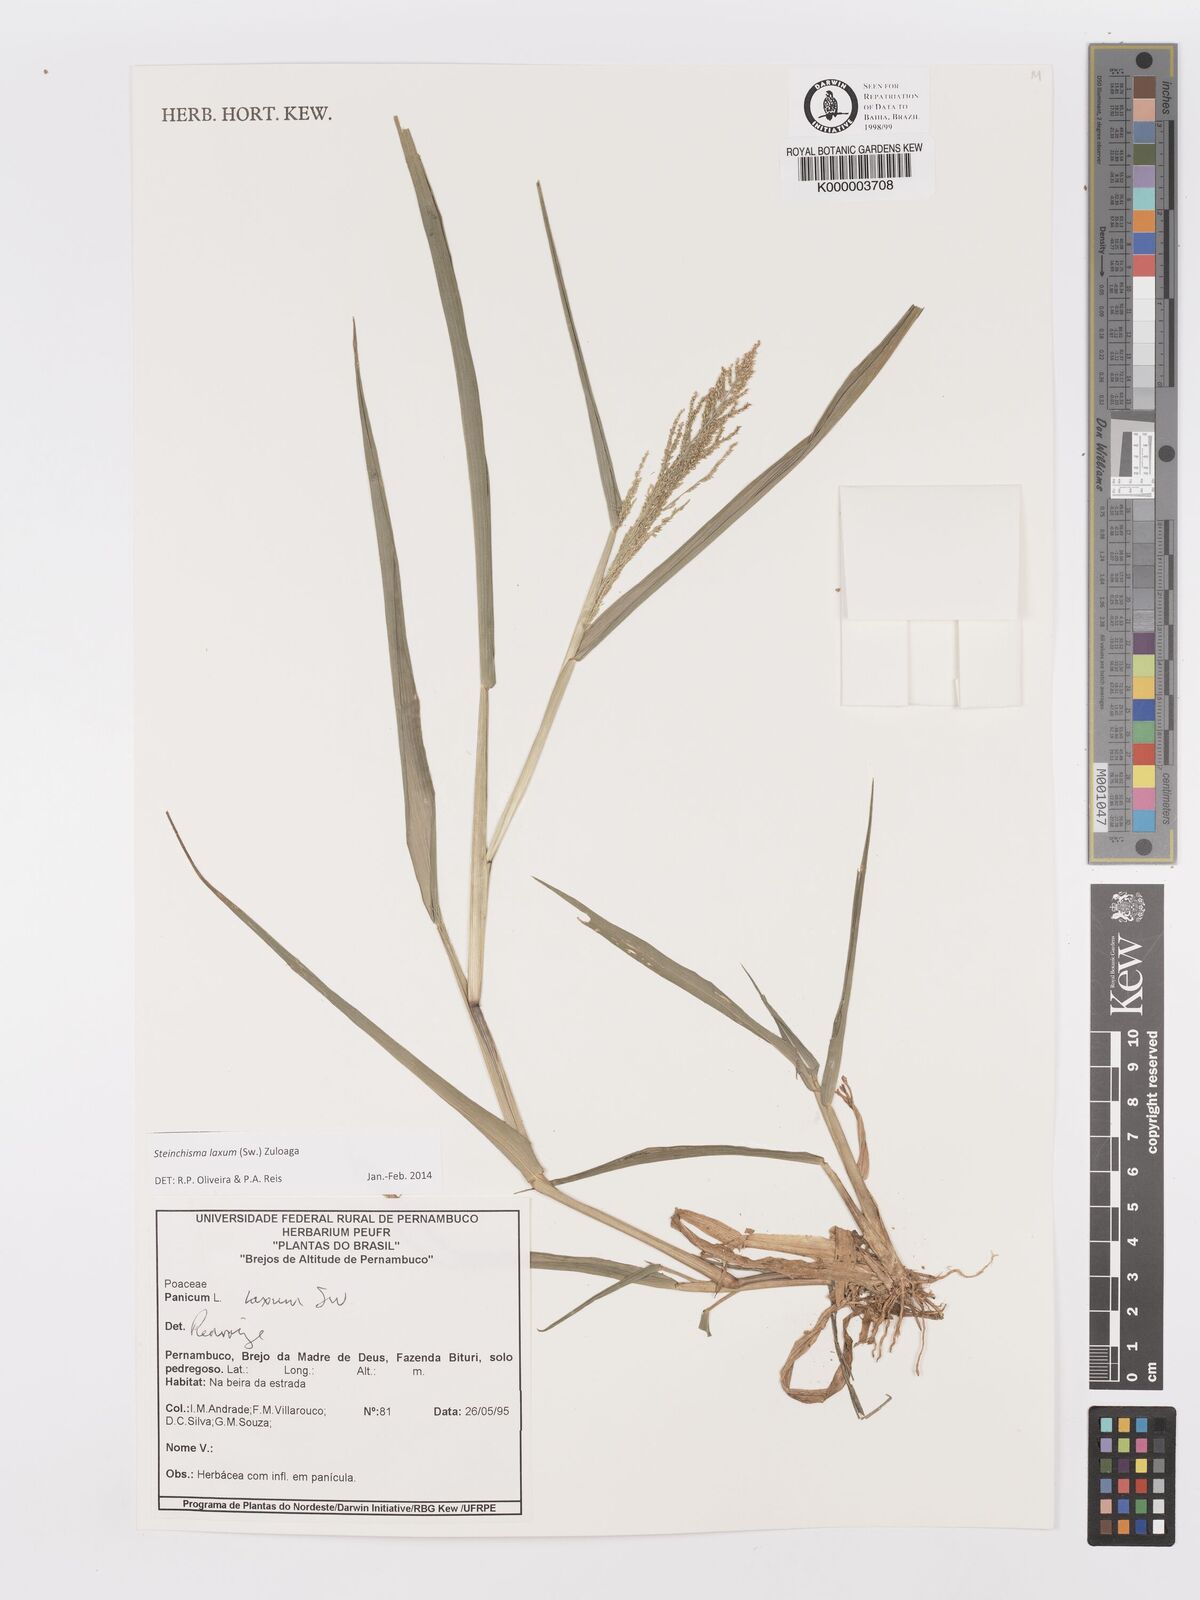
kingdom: Plantae
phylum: Tracheophyta
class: Liliopsida
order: Poales
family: Poaceae
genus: Panicum
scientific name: Panicum
